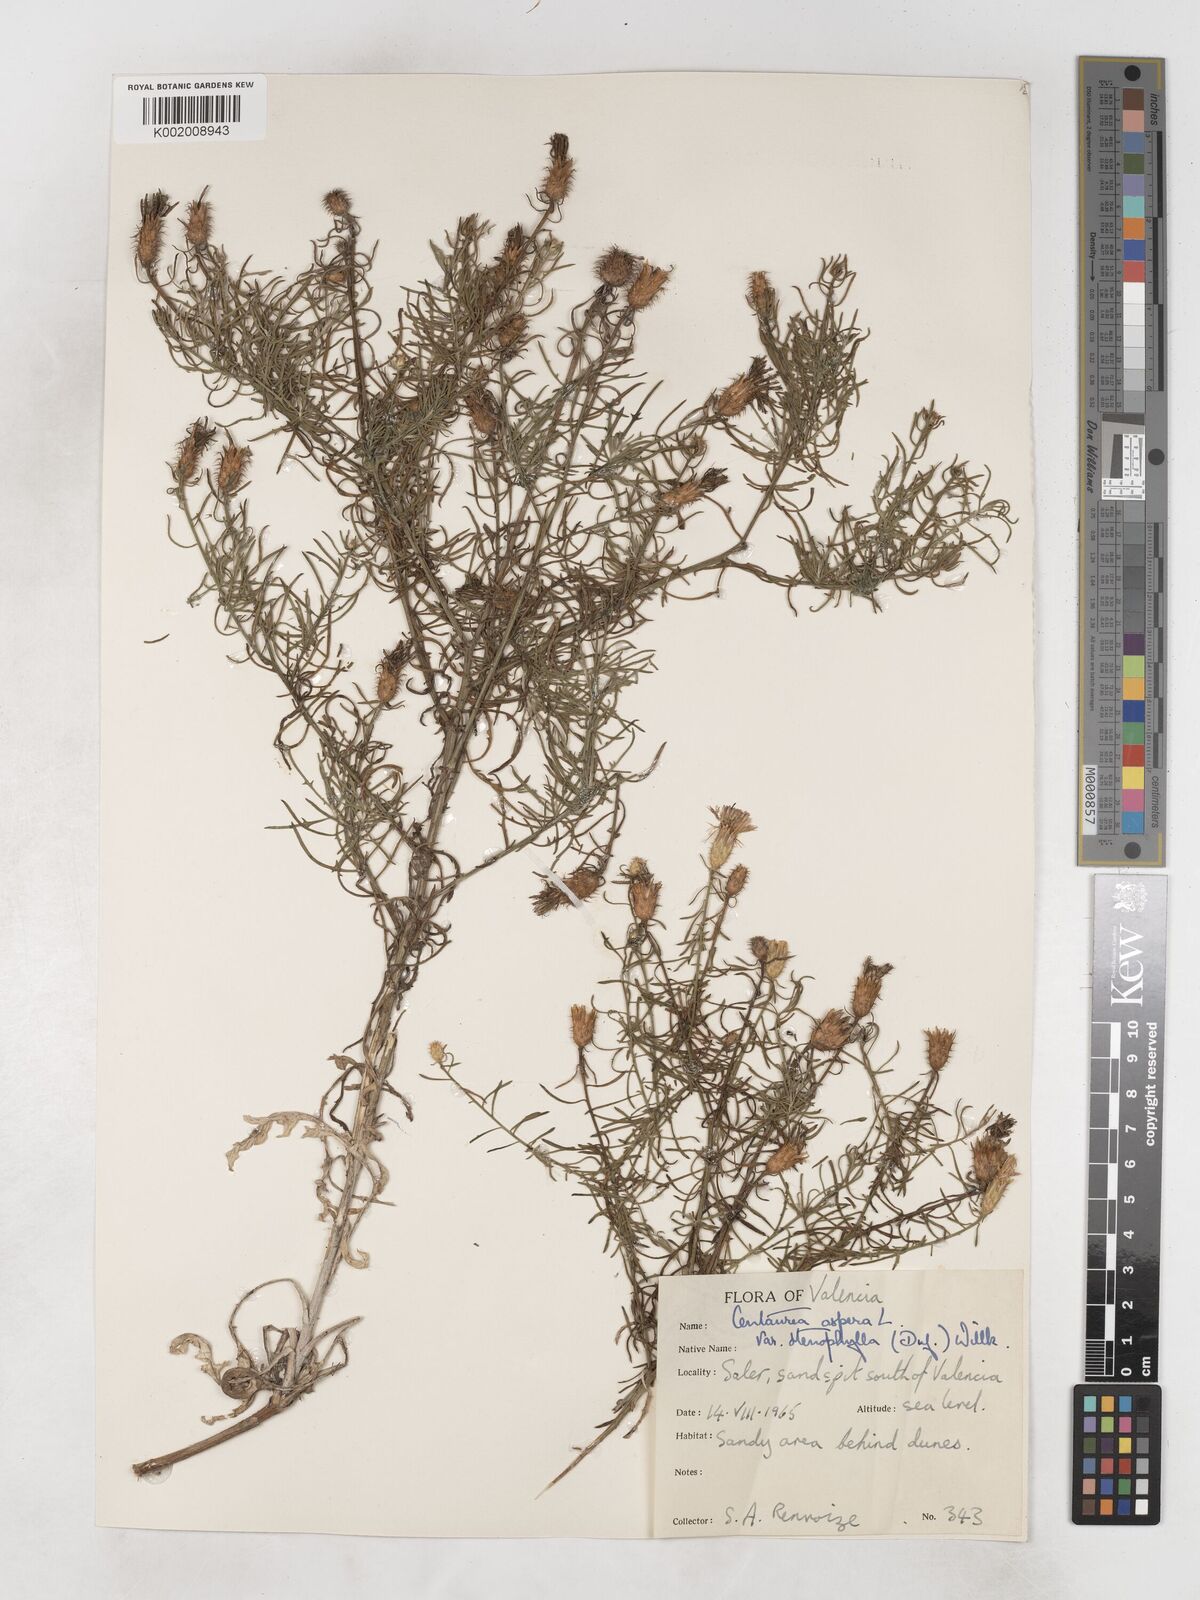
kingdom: Plantae
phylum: Tracheophyta
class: Magnoliopsida
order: Asterales
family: Asteraceae
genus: Centaurea
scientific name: Centaurea aspera
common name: Rough star-thistle
